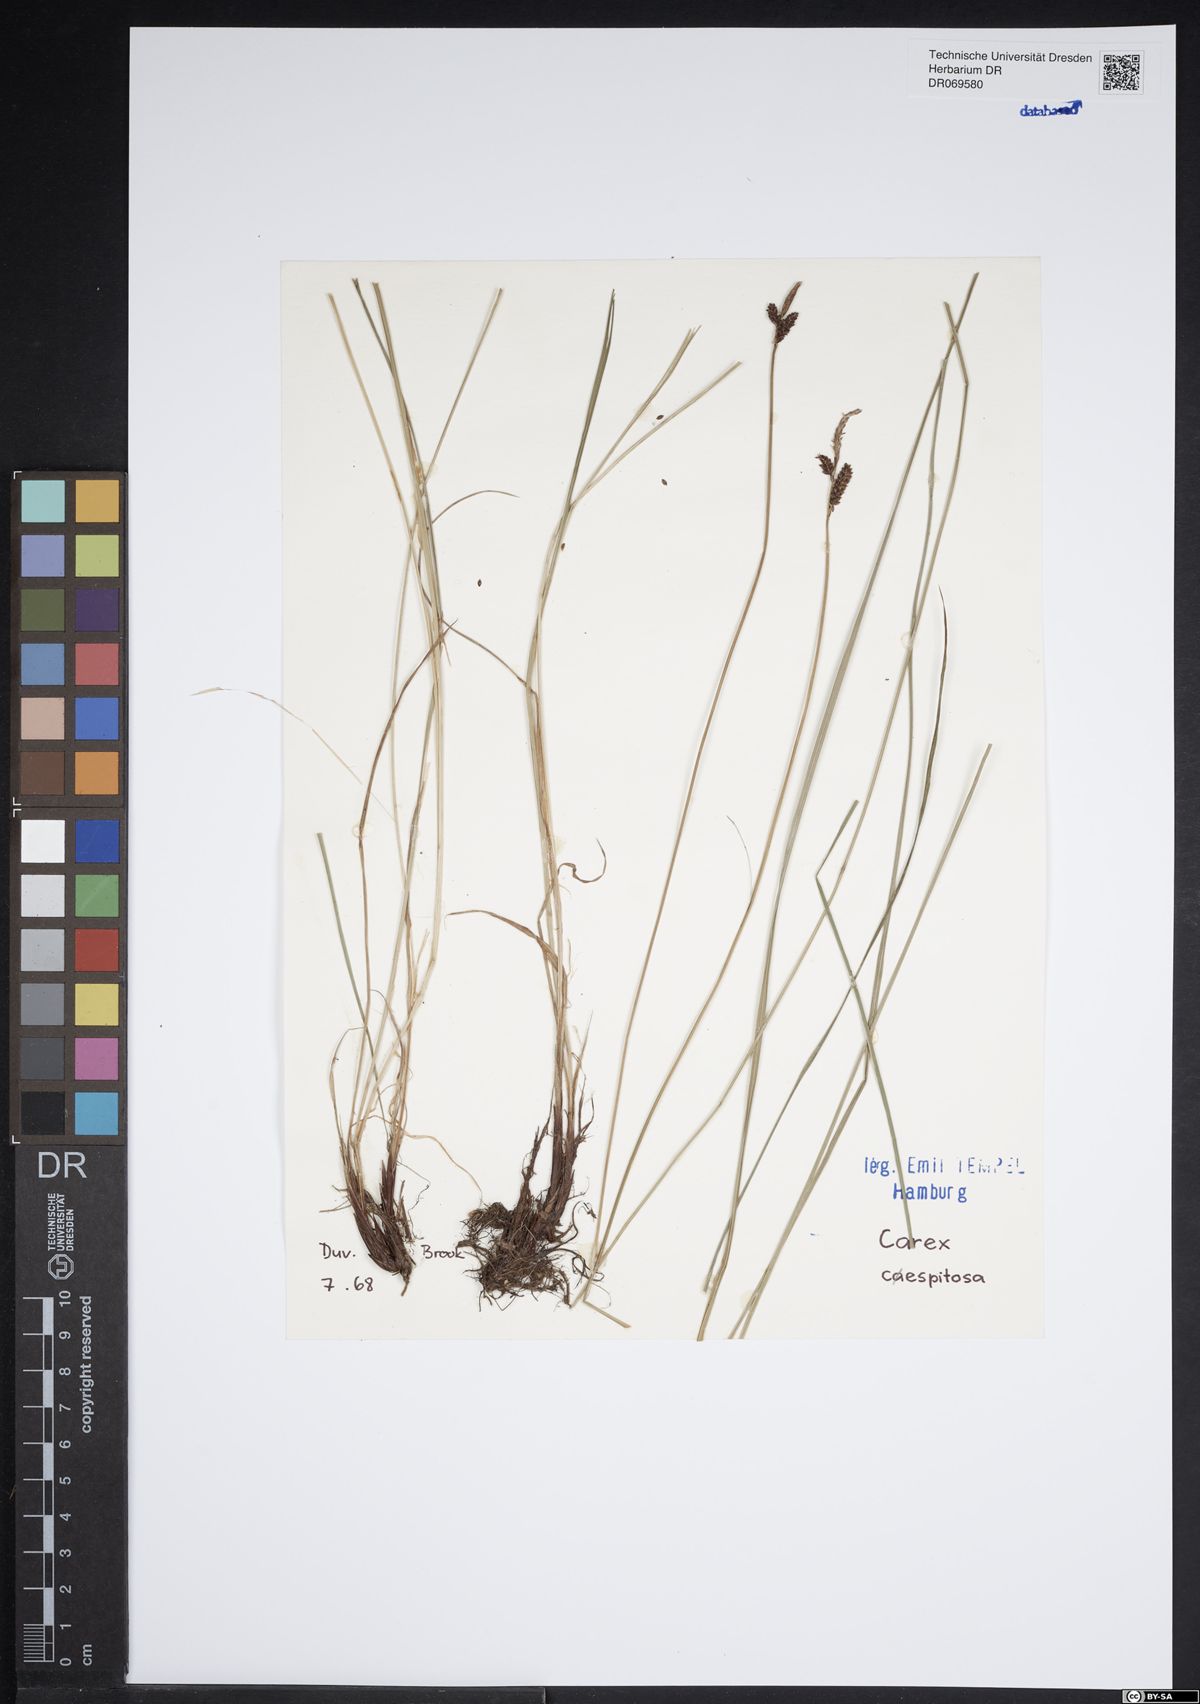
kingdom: Plantae
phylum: Tracheophyta
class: Liliopsida
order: Poales
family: Cyperaceae
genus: Carex
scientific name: Carex cespitosa
